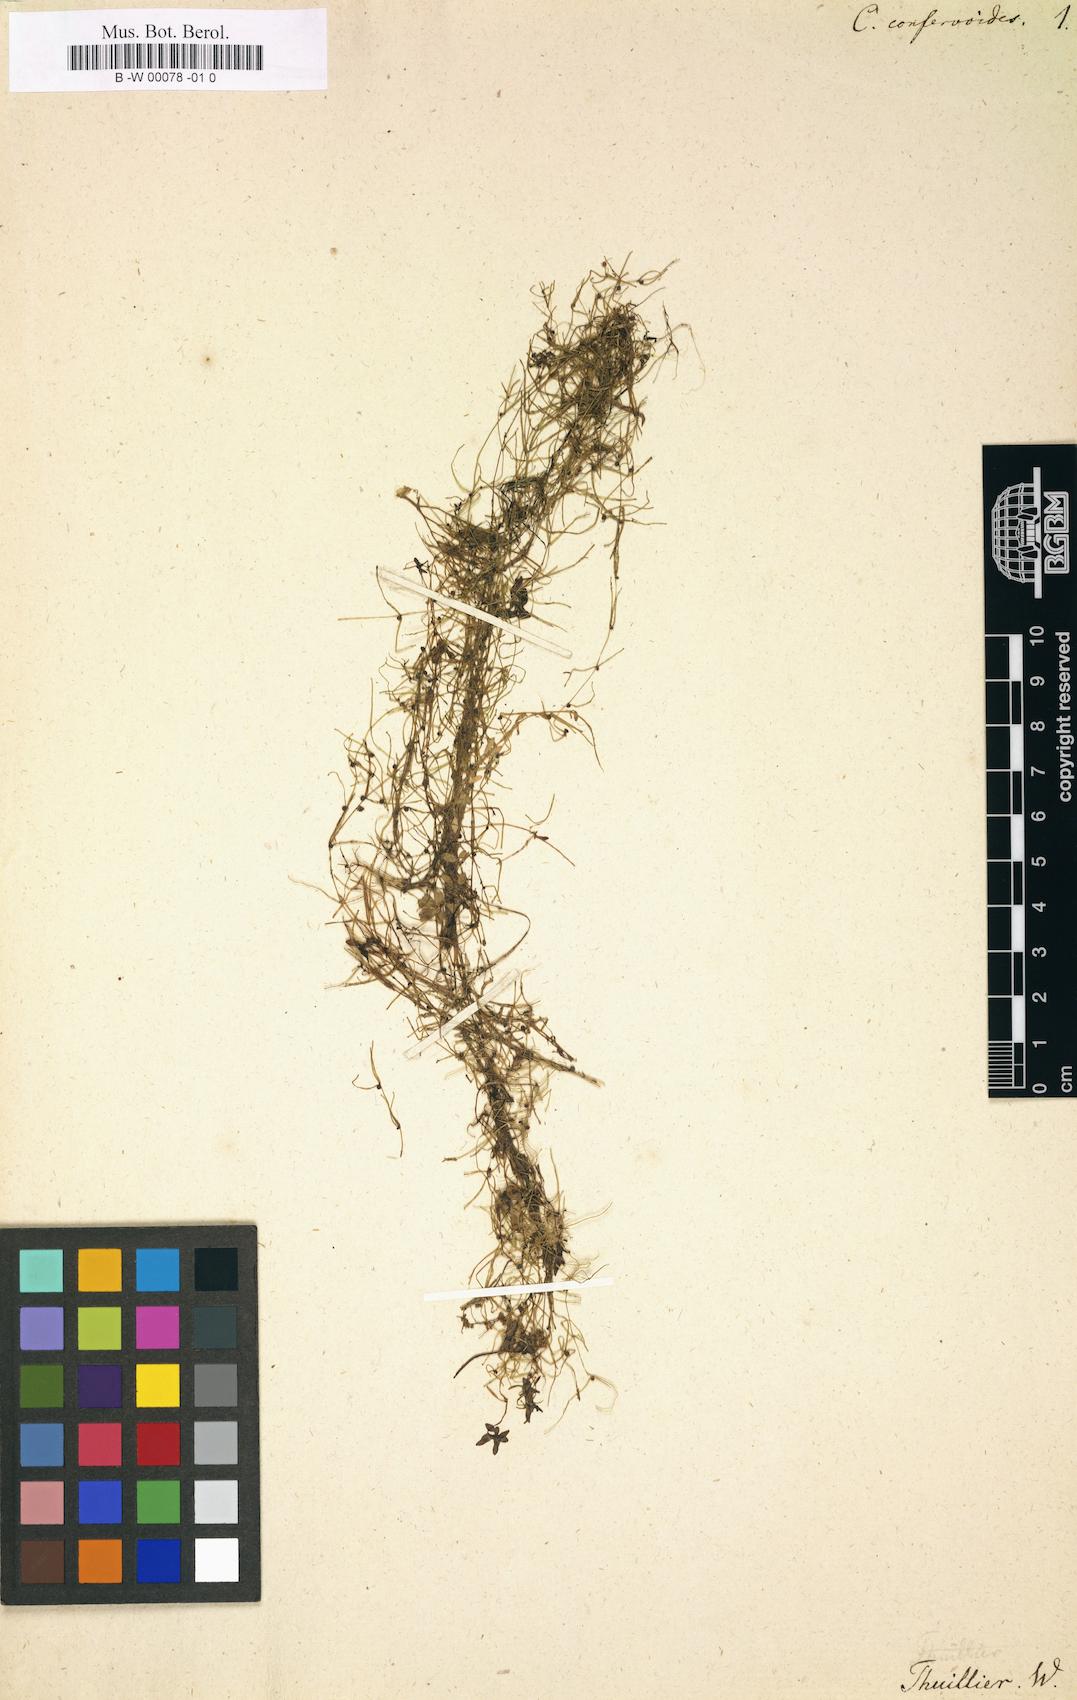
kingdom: Plantae
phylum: Tracheophyta
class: Magnoliopsida
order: Lamiales
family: Plantaginaceae
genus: Callitriche
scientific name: Callitriche hermaphroditica
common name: Autumnal water-starwort
